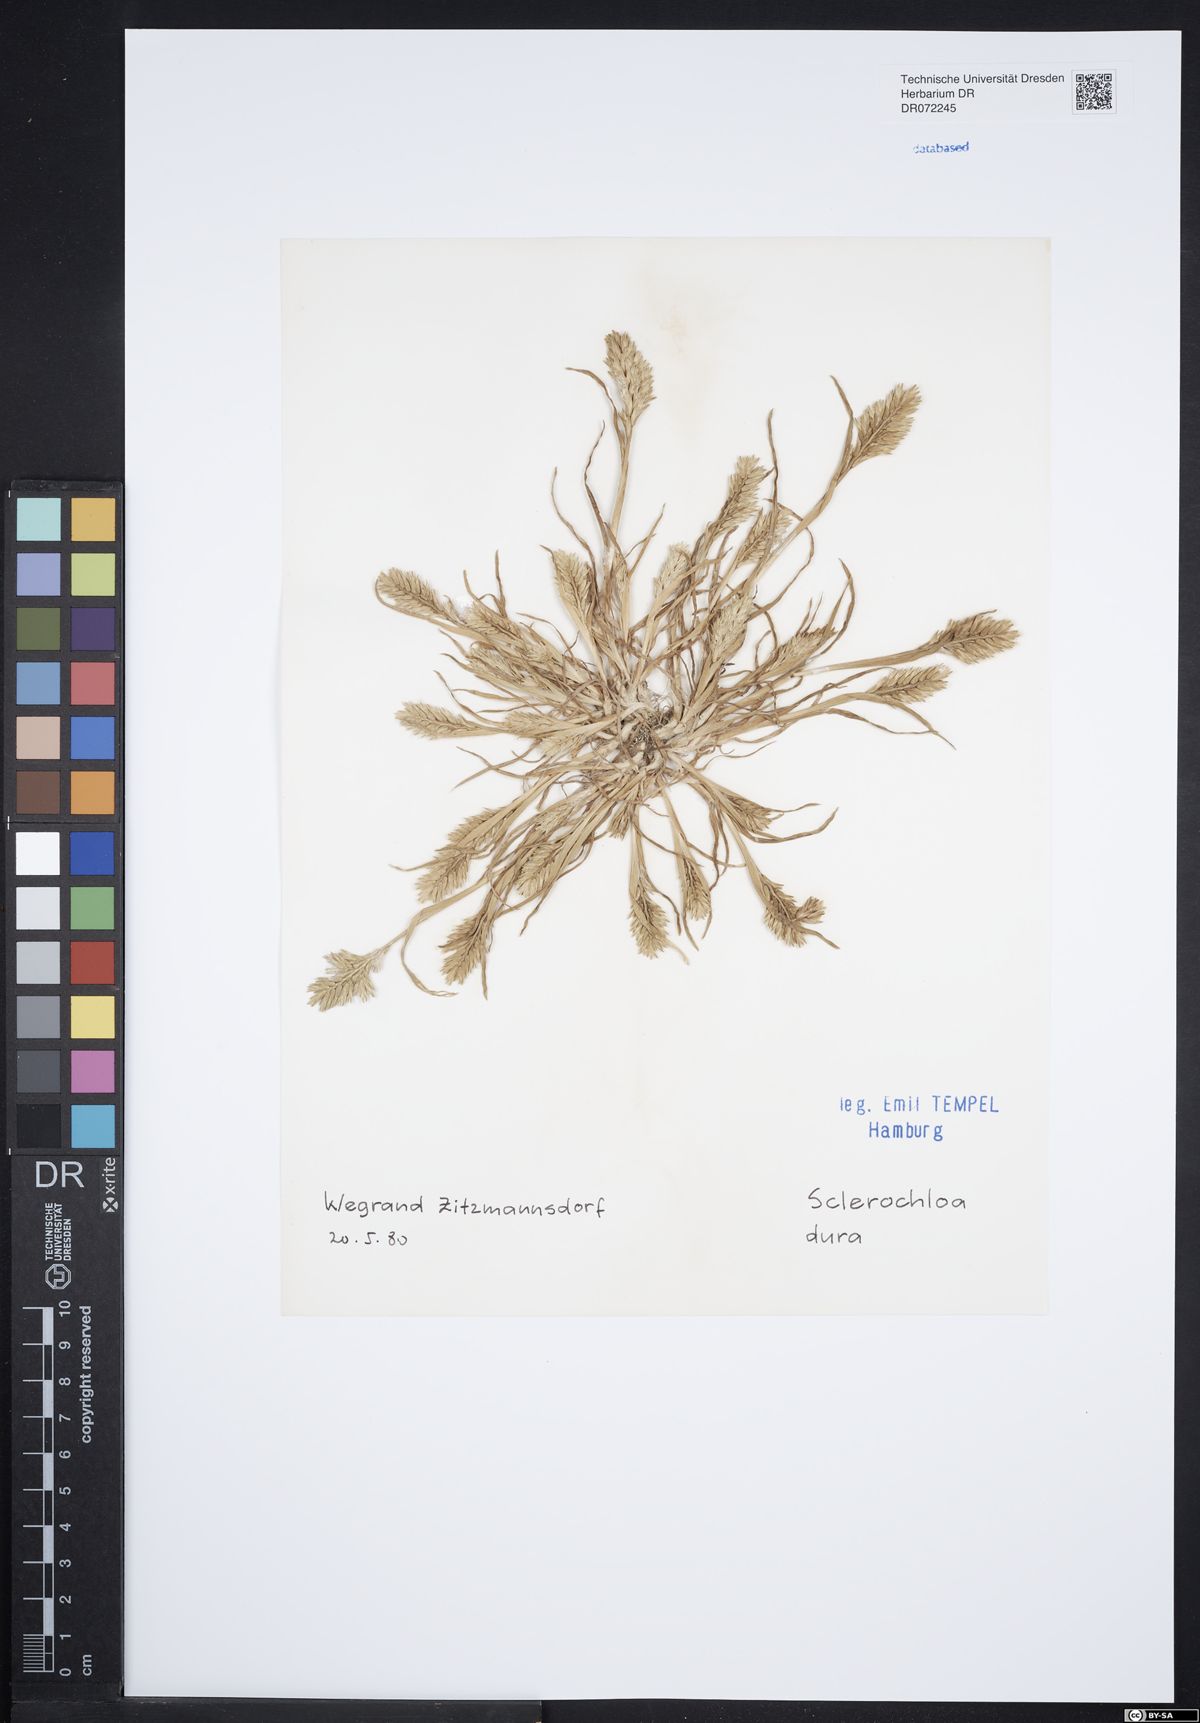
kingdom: Plantae
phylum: Tracheophyta
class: Liliopsida
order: Poales
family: Poaceae
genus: Sclerochloa
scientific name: Sclerochloa dura
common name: Common hardgrass
